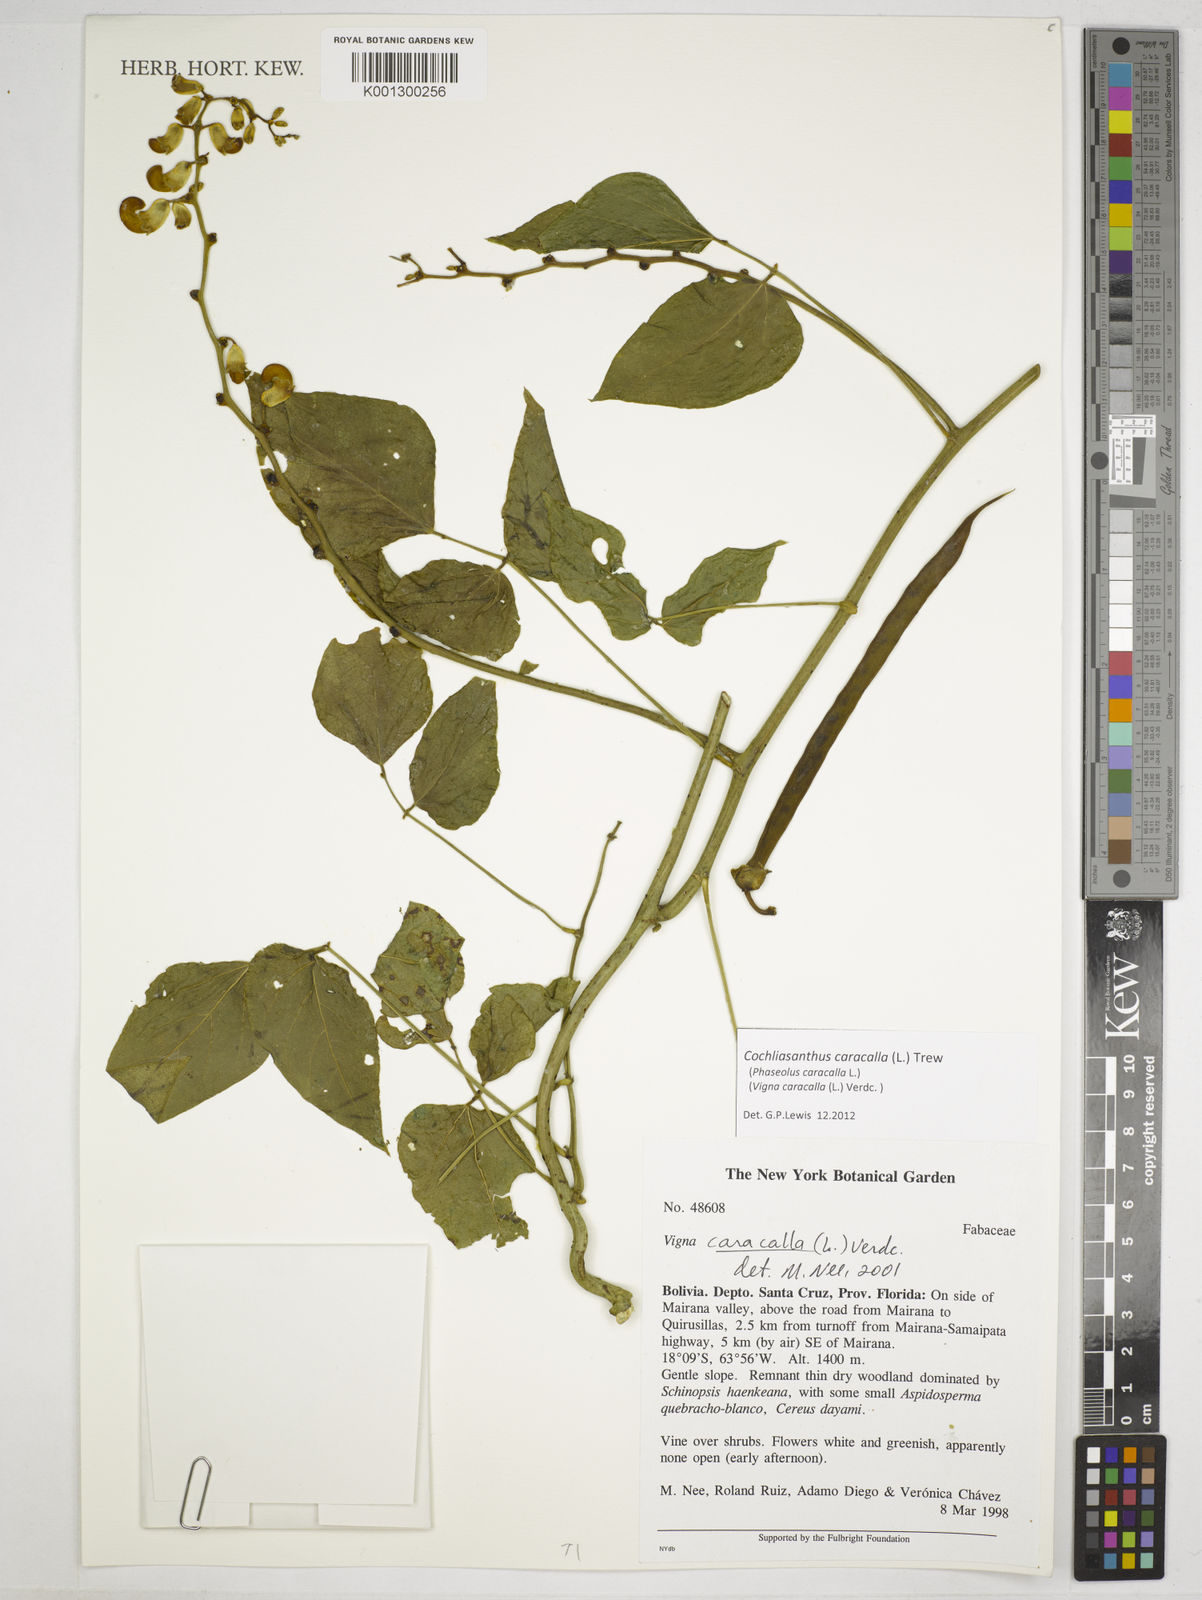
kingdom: Plantae
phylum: Tracheophyta
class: Magnoliopsida
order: Fabales
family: Fabaceae
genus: Cochliasanthus
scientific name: Cochliasanthus caracalla
